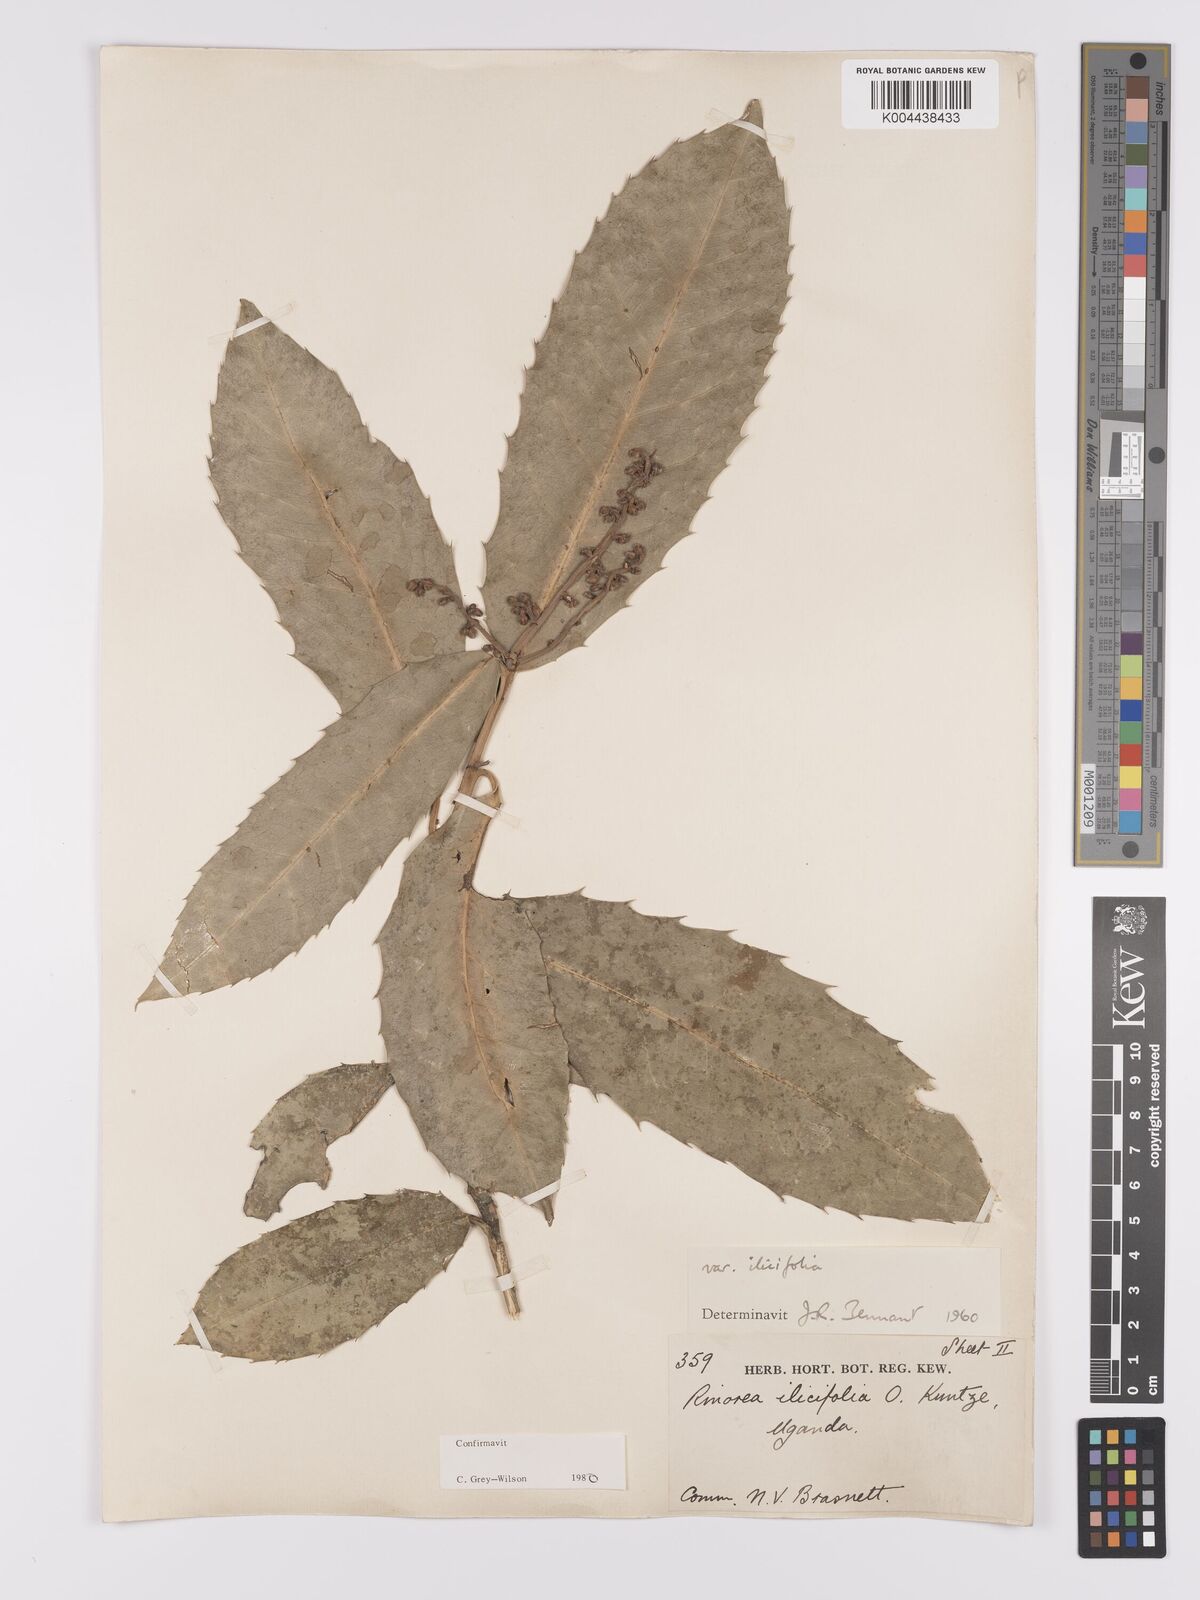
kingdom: Plantae
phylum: Tracheophyta
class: Magnoliopsida
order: Malpighiales
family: Violaceae
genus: Rinorea
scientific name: Rinorea ilicifolia
